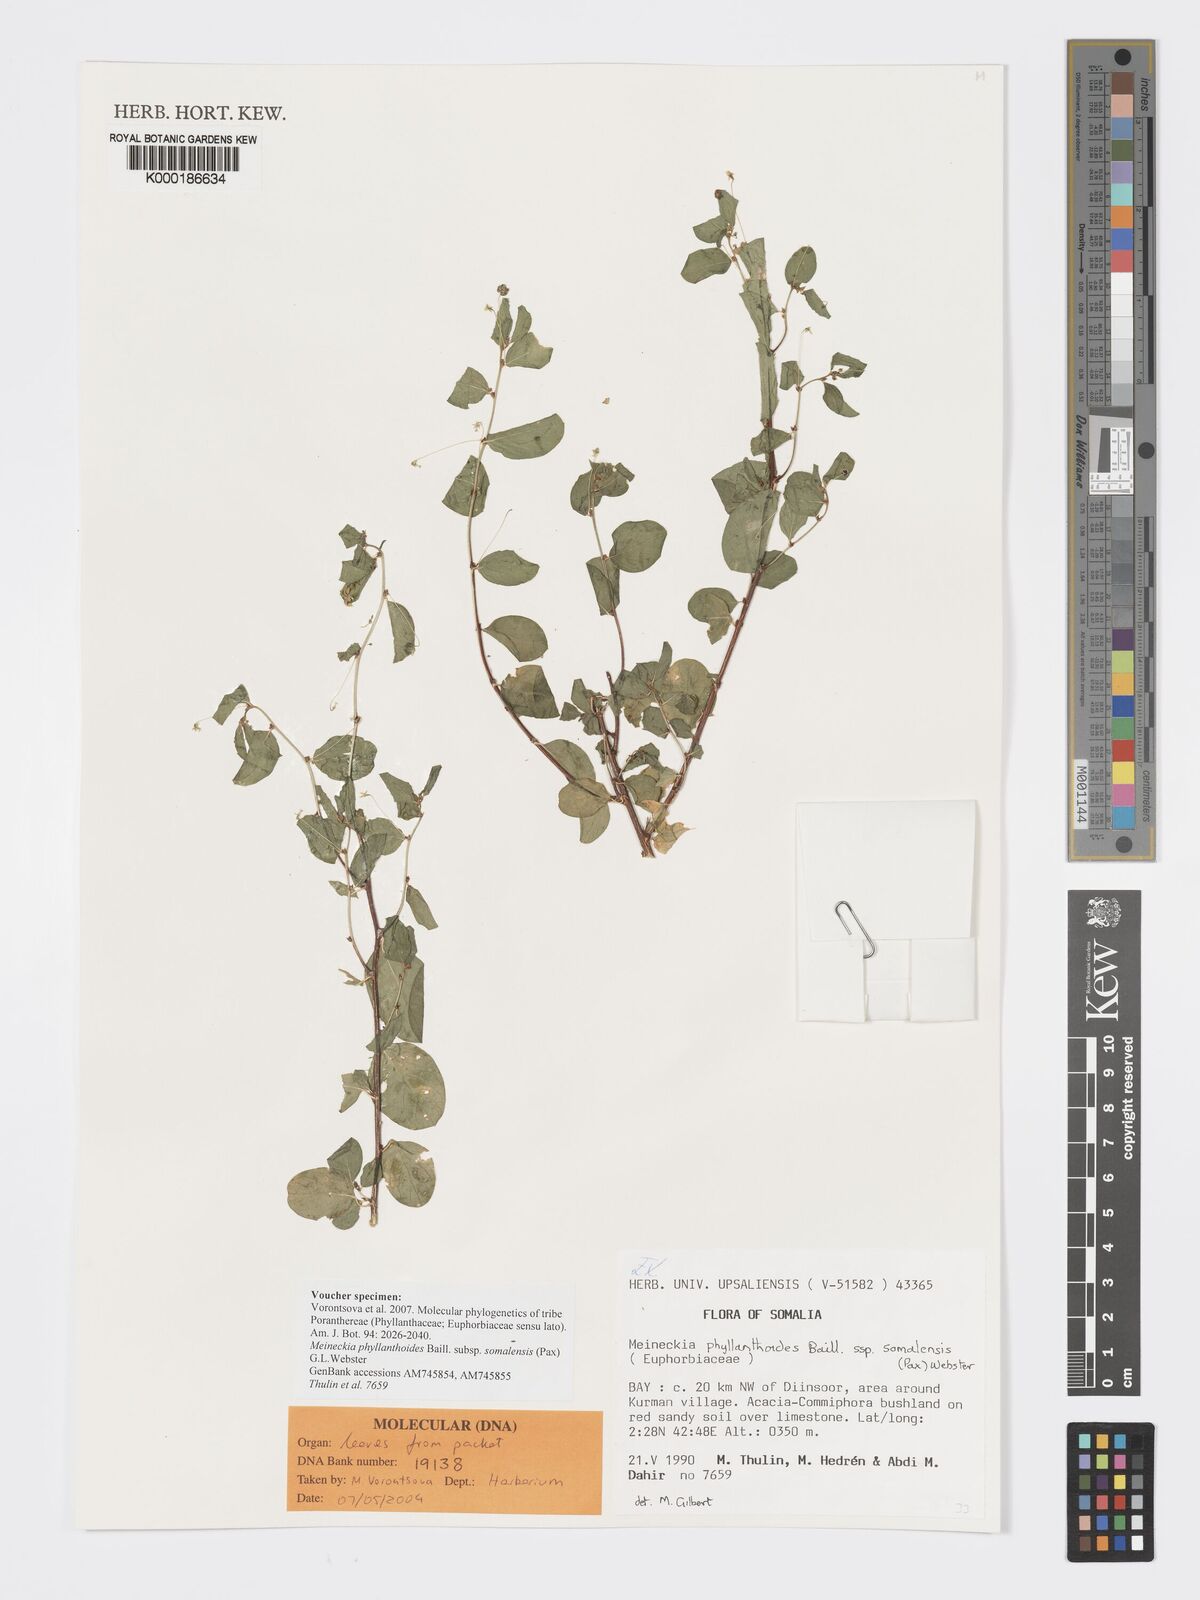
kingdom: Plantae
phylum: Tracheophyta
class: Magnoliopsida
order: Malpighiales
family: Phyllanthaceae
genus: Meineckia
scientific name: Meineckia phyllanthoides
